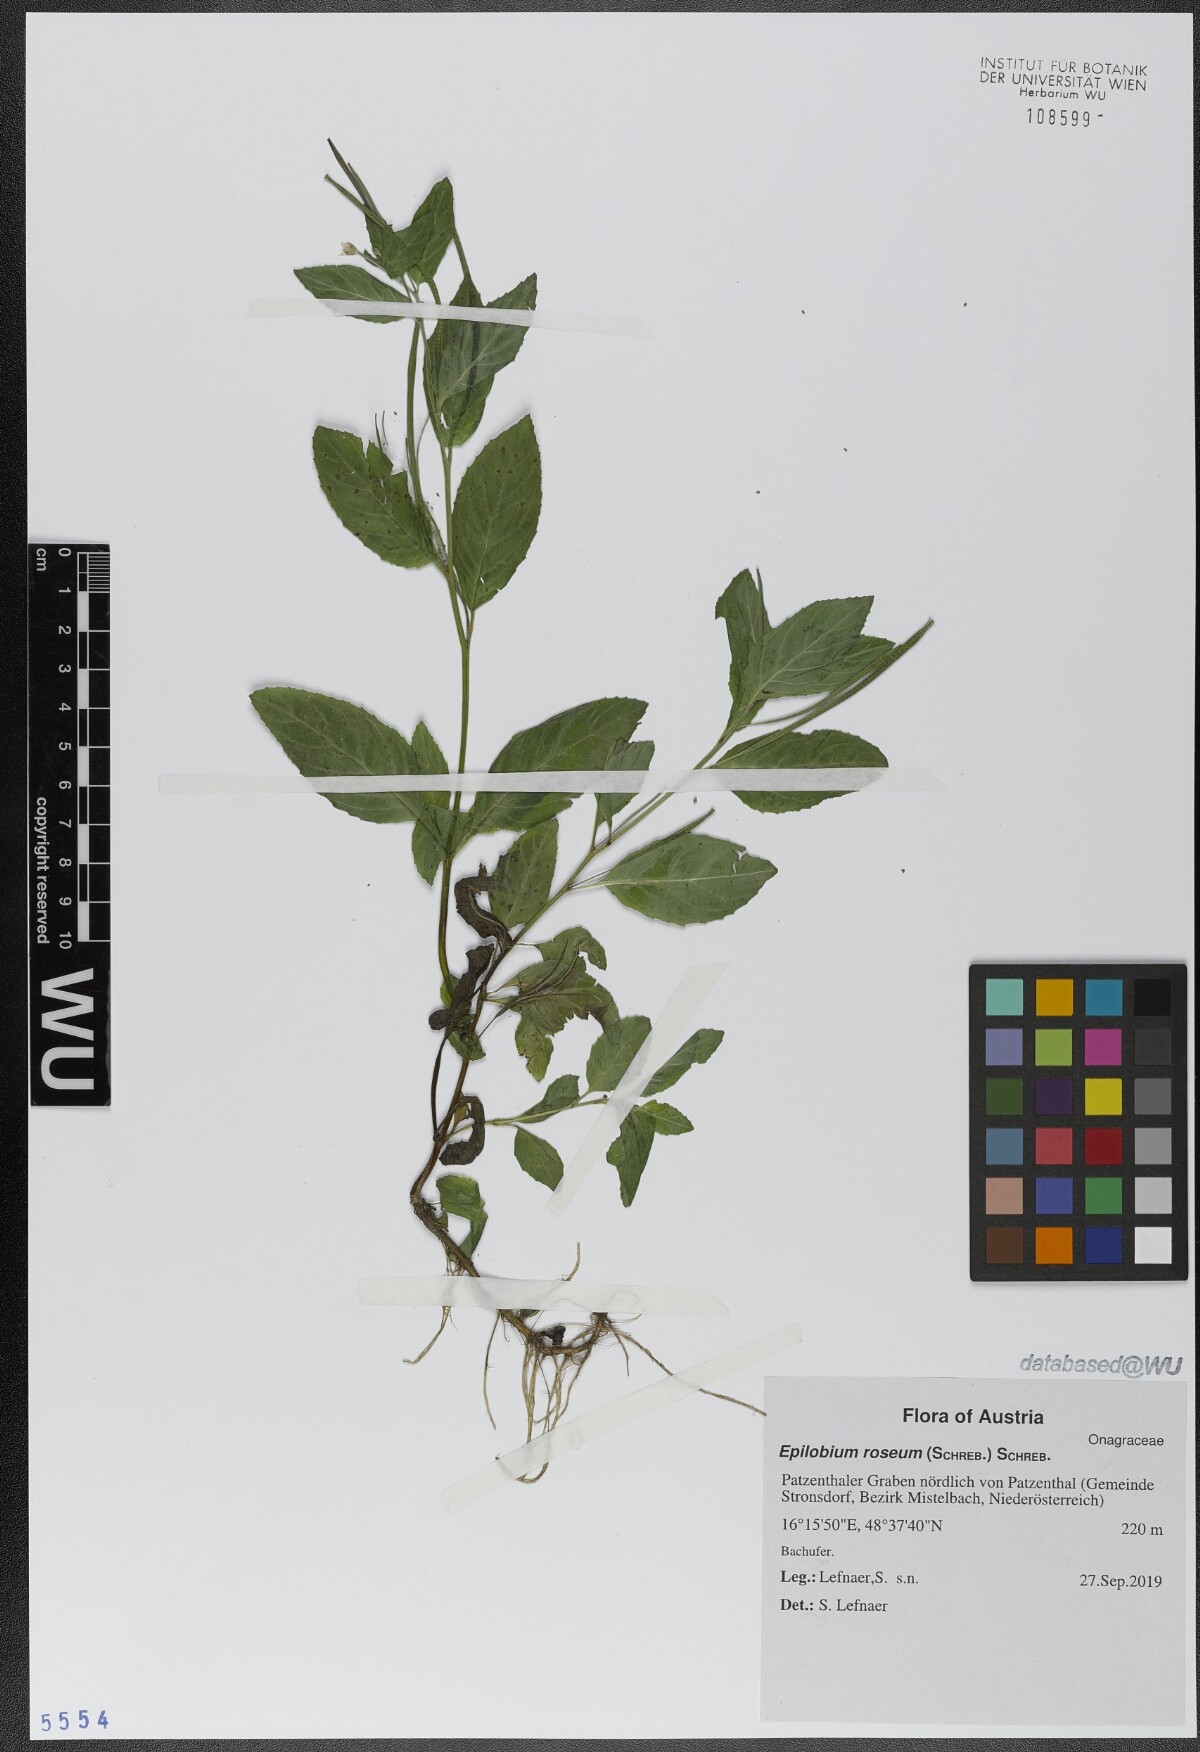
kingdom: Plantae
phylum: Tracheophyta
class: Magnoliopsida
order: Myrtales
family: Onagraceae
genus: Epilobium
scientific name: Epilobium roseum
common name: Pale willowherb
